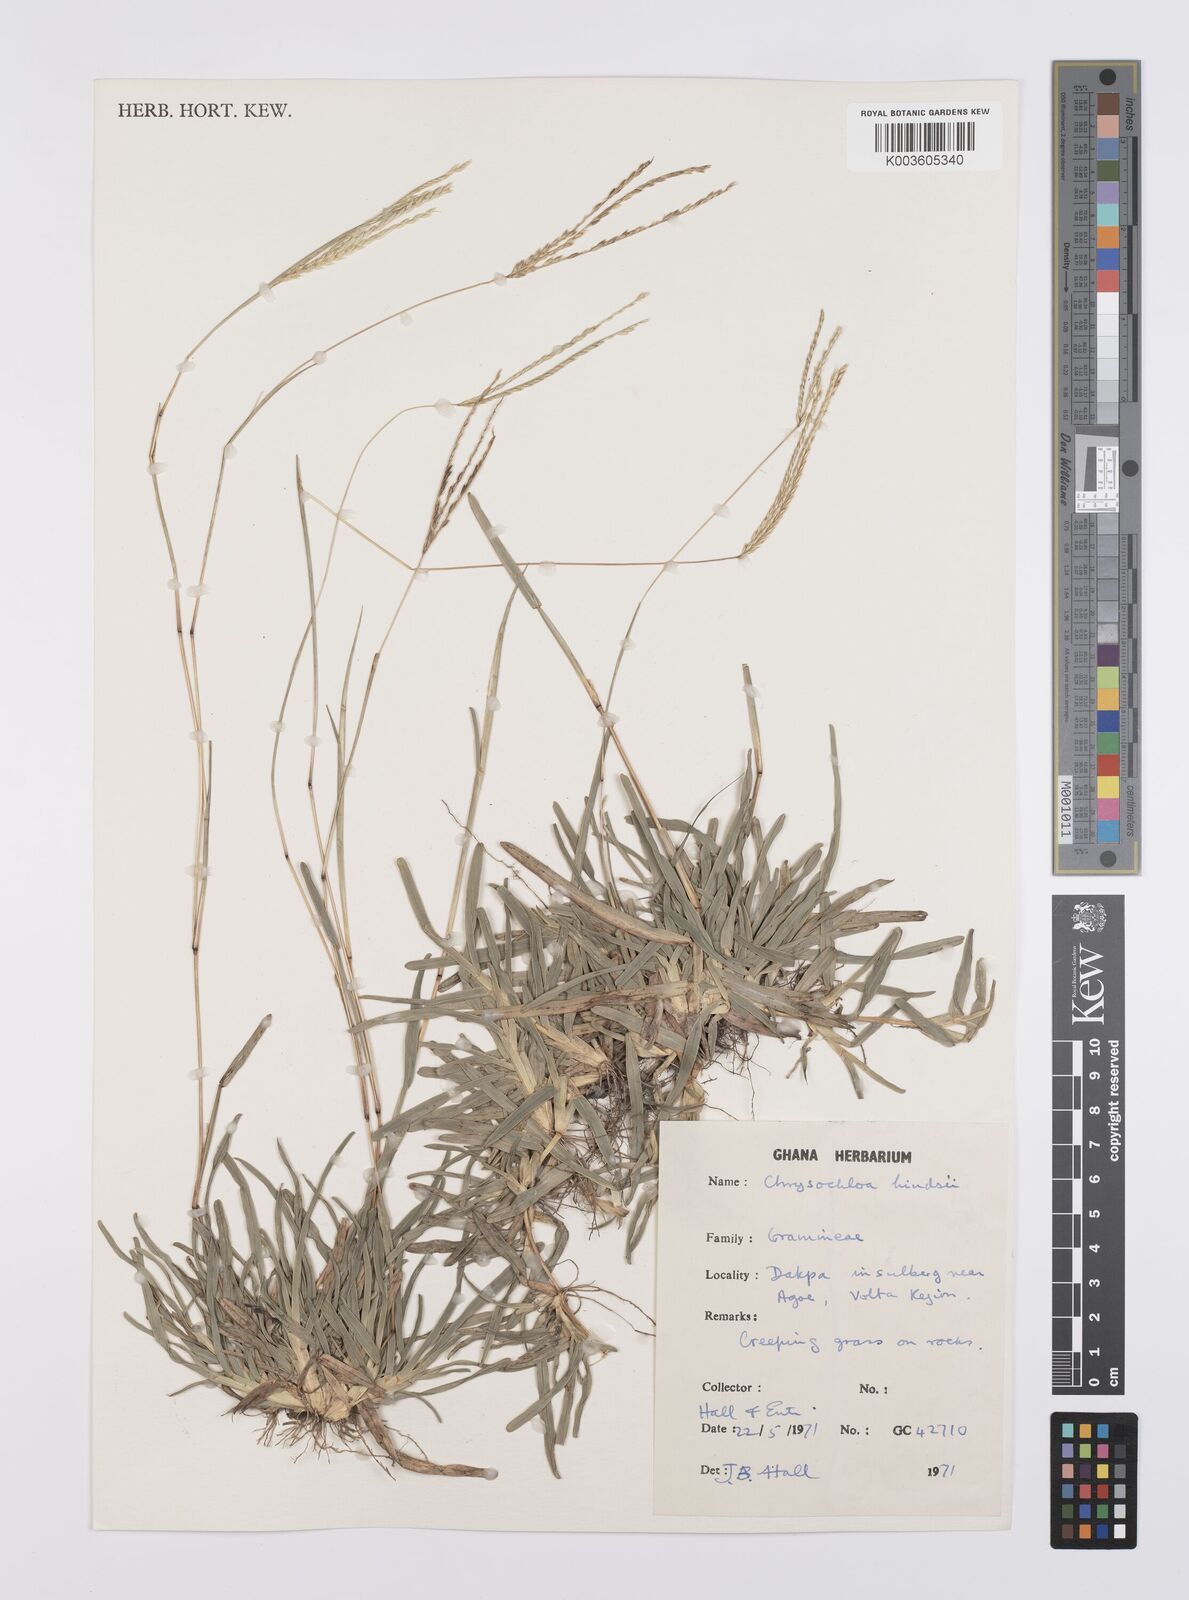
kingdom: Plantae
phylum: Tracheophyta
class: Liliopsida
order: Poales
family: Poaceae
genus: Chrysochloa
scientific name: Chrysochloa hindsii
